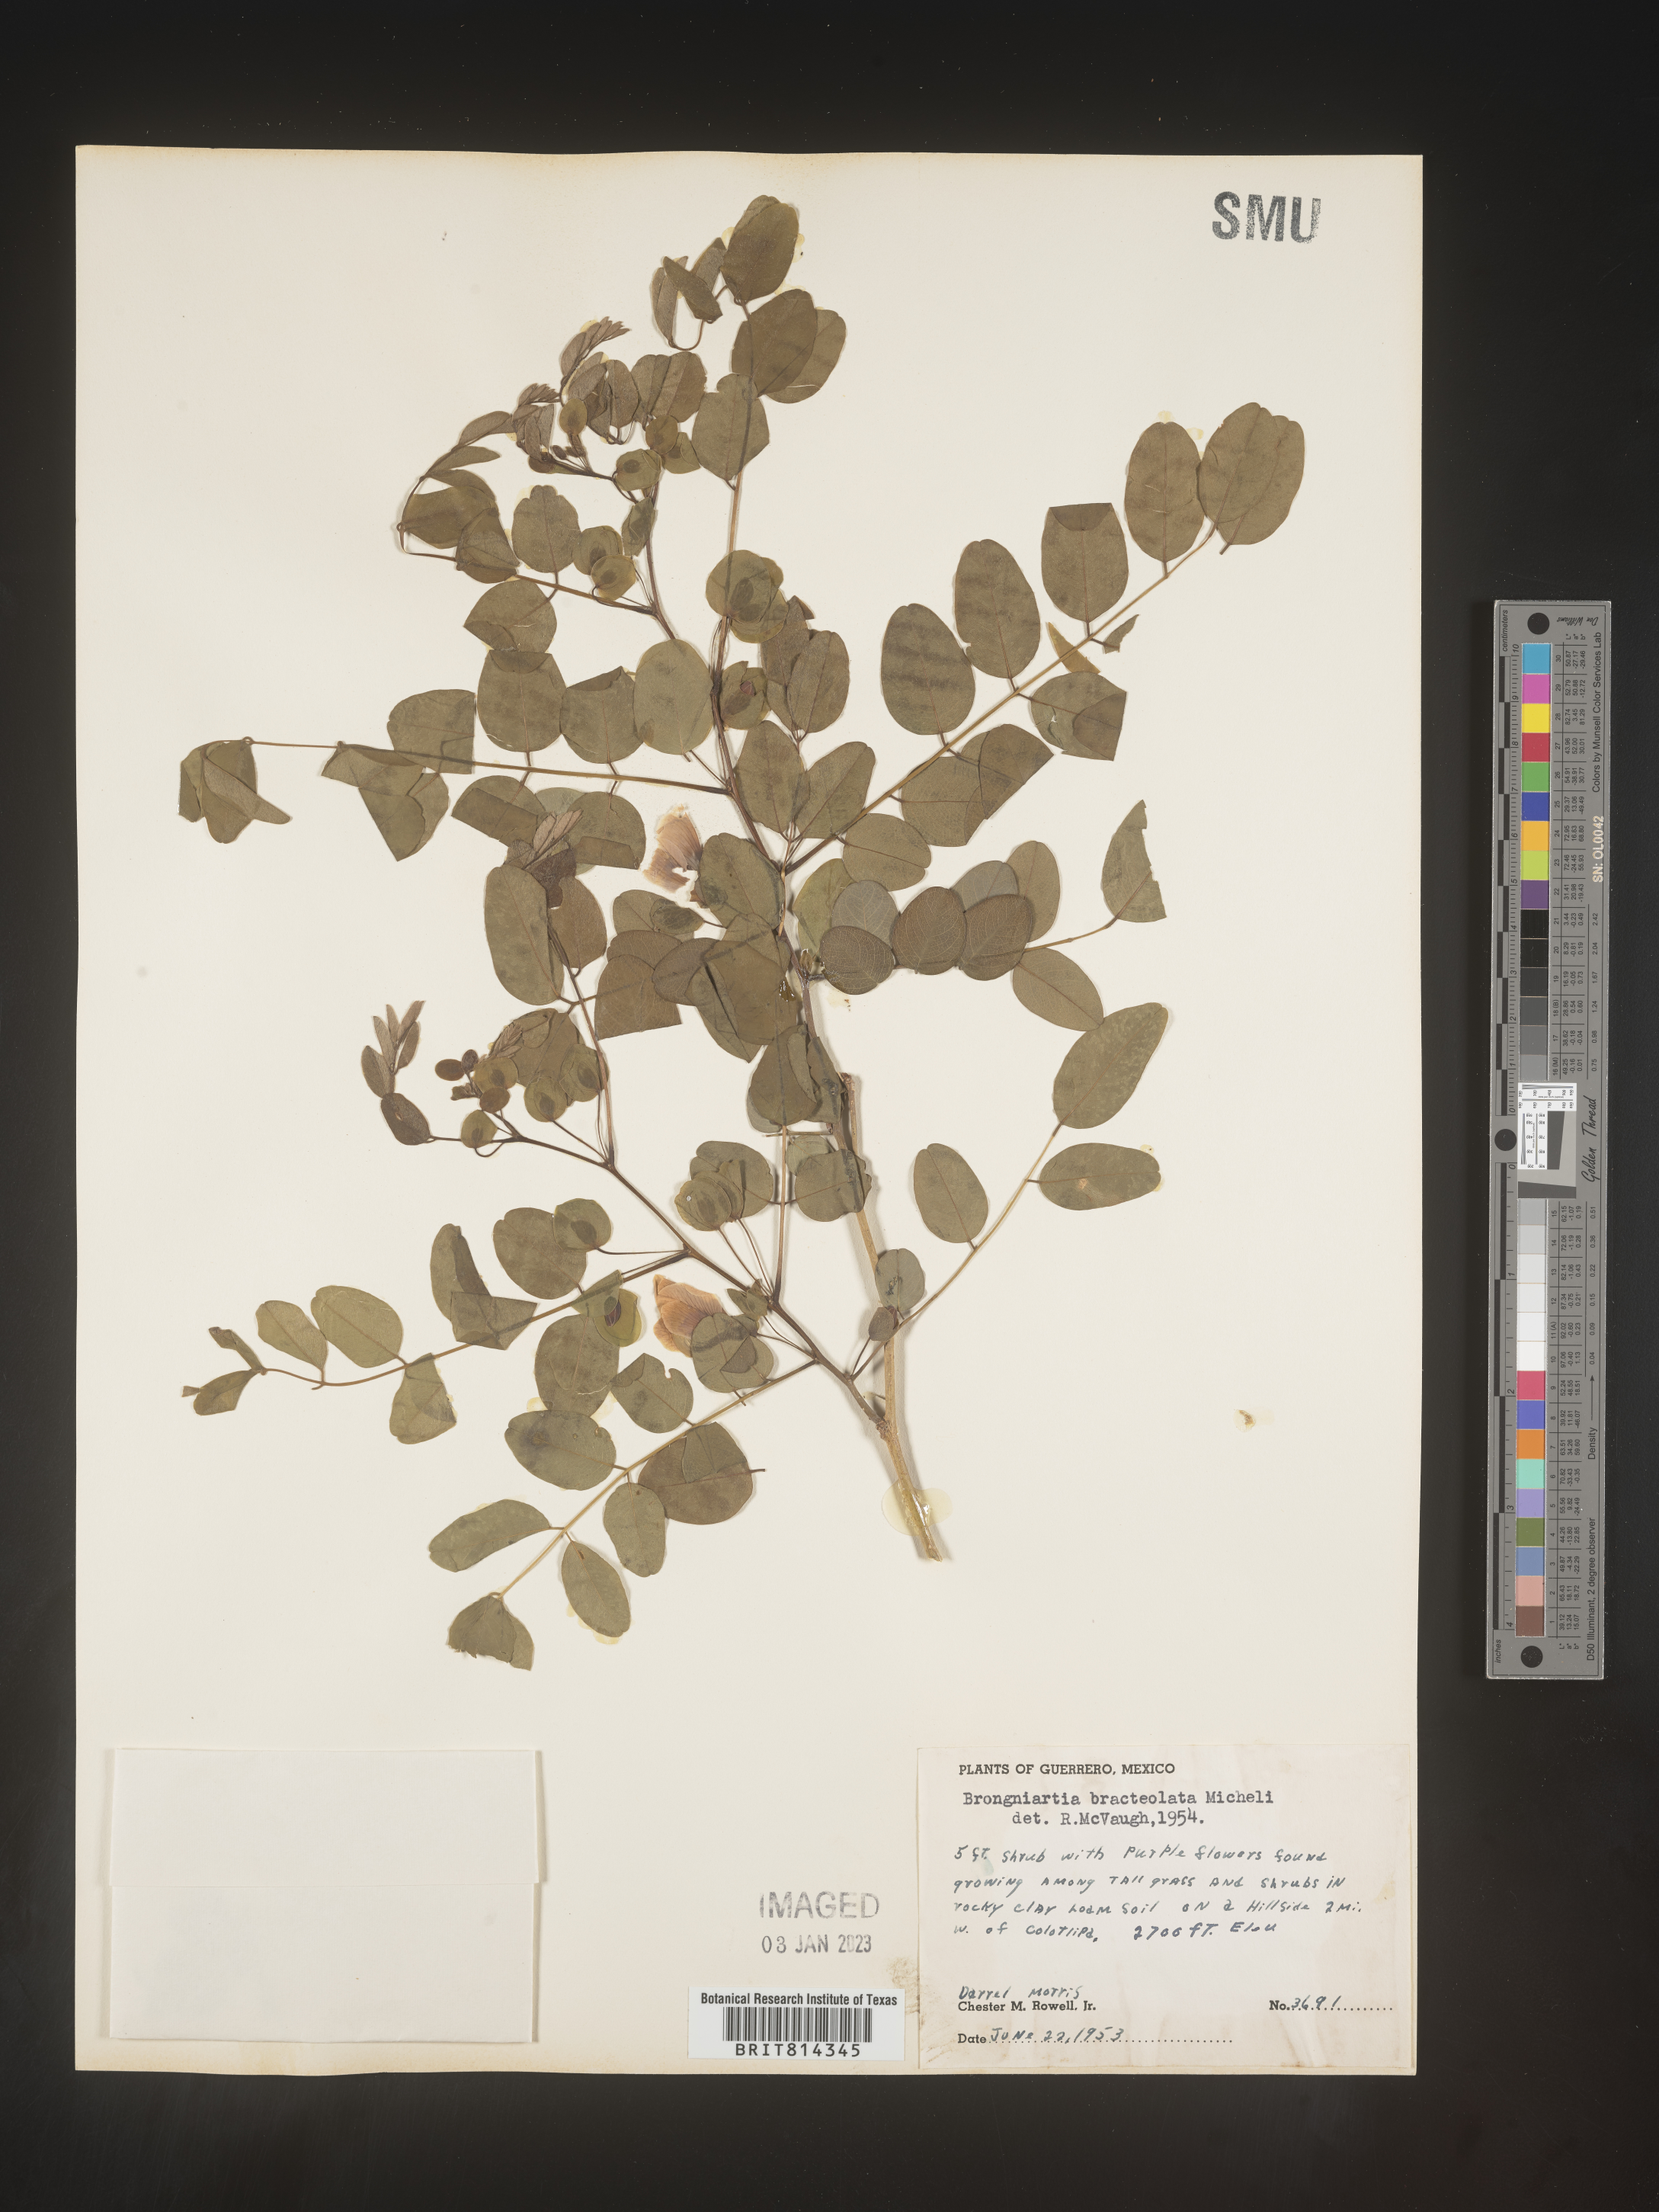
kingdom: Plantae
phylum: Tracheophyta
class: Magnoliopsida
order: Fabales
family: Fabaceae
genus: Brongniartia
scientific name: Brongniartia
